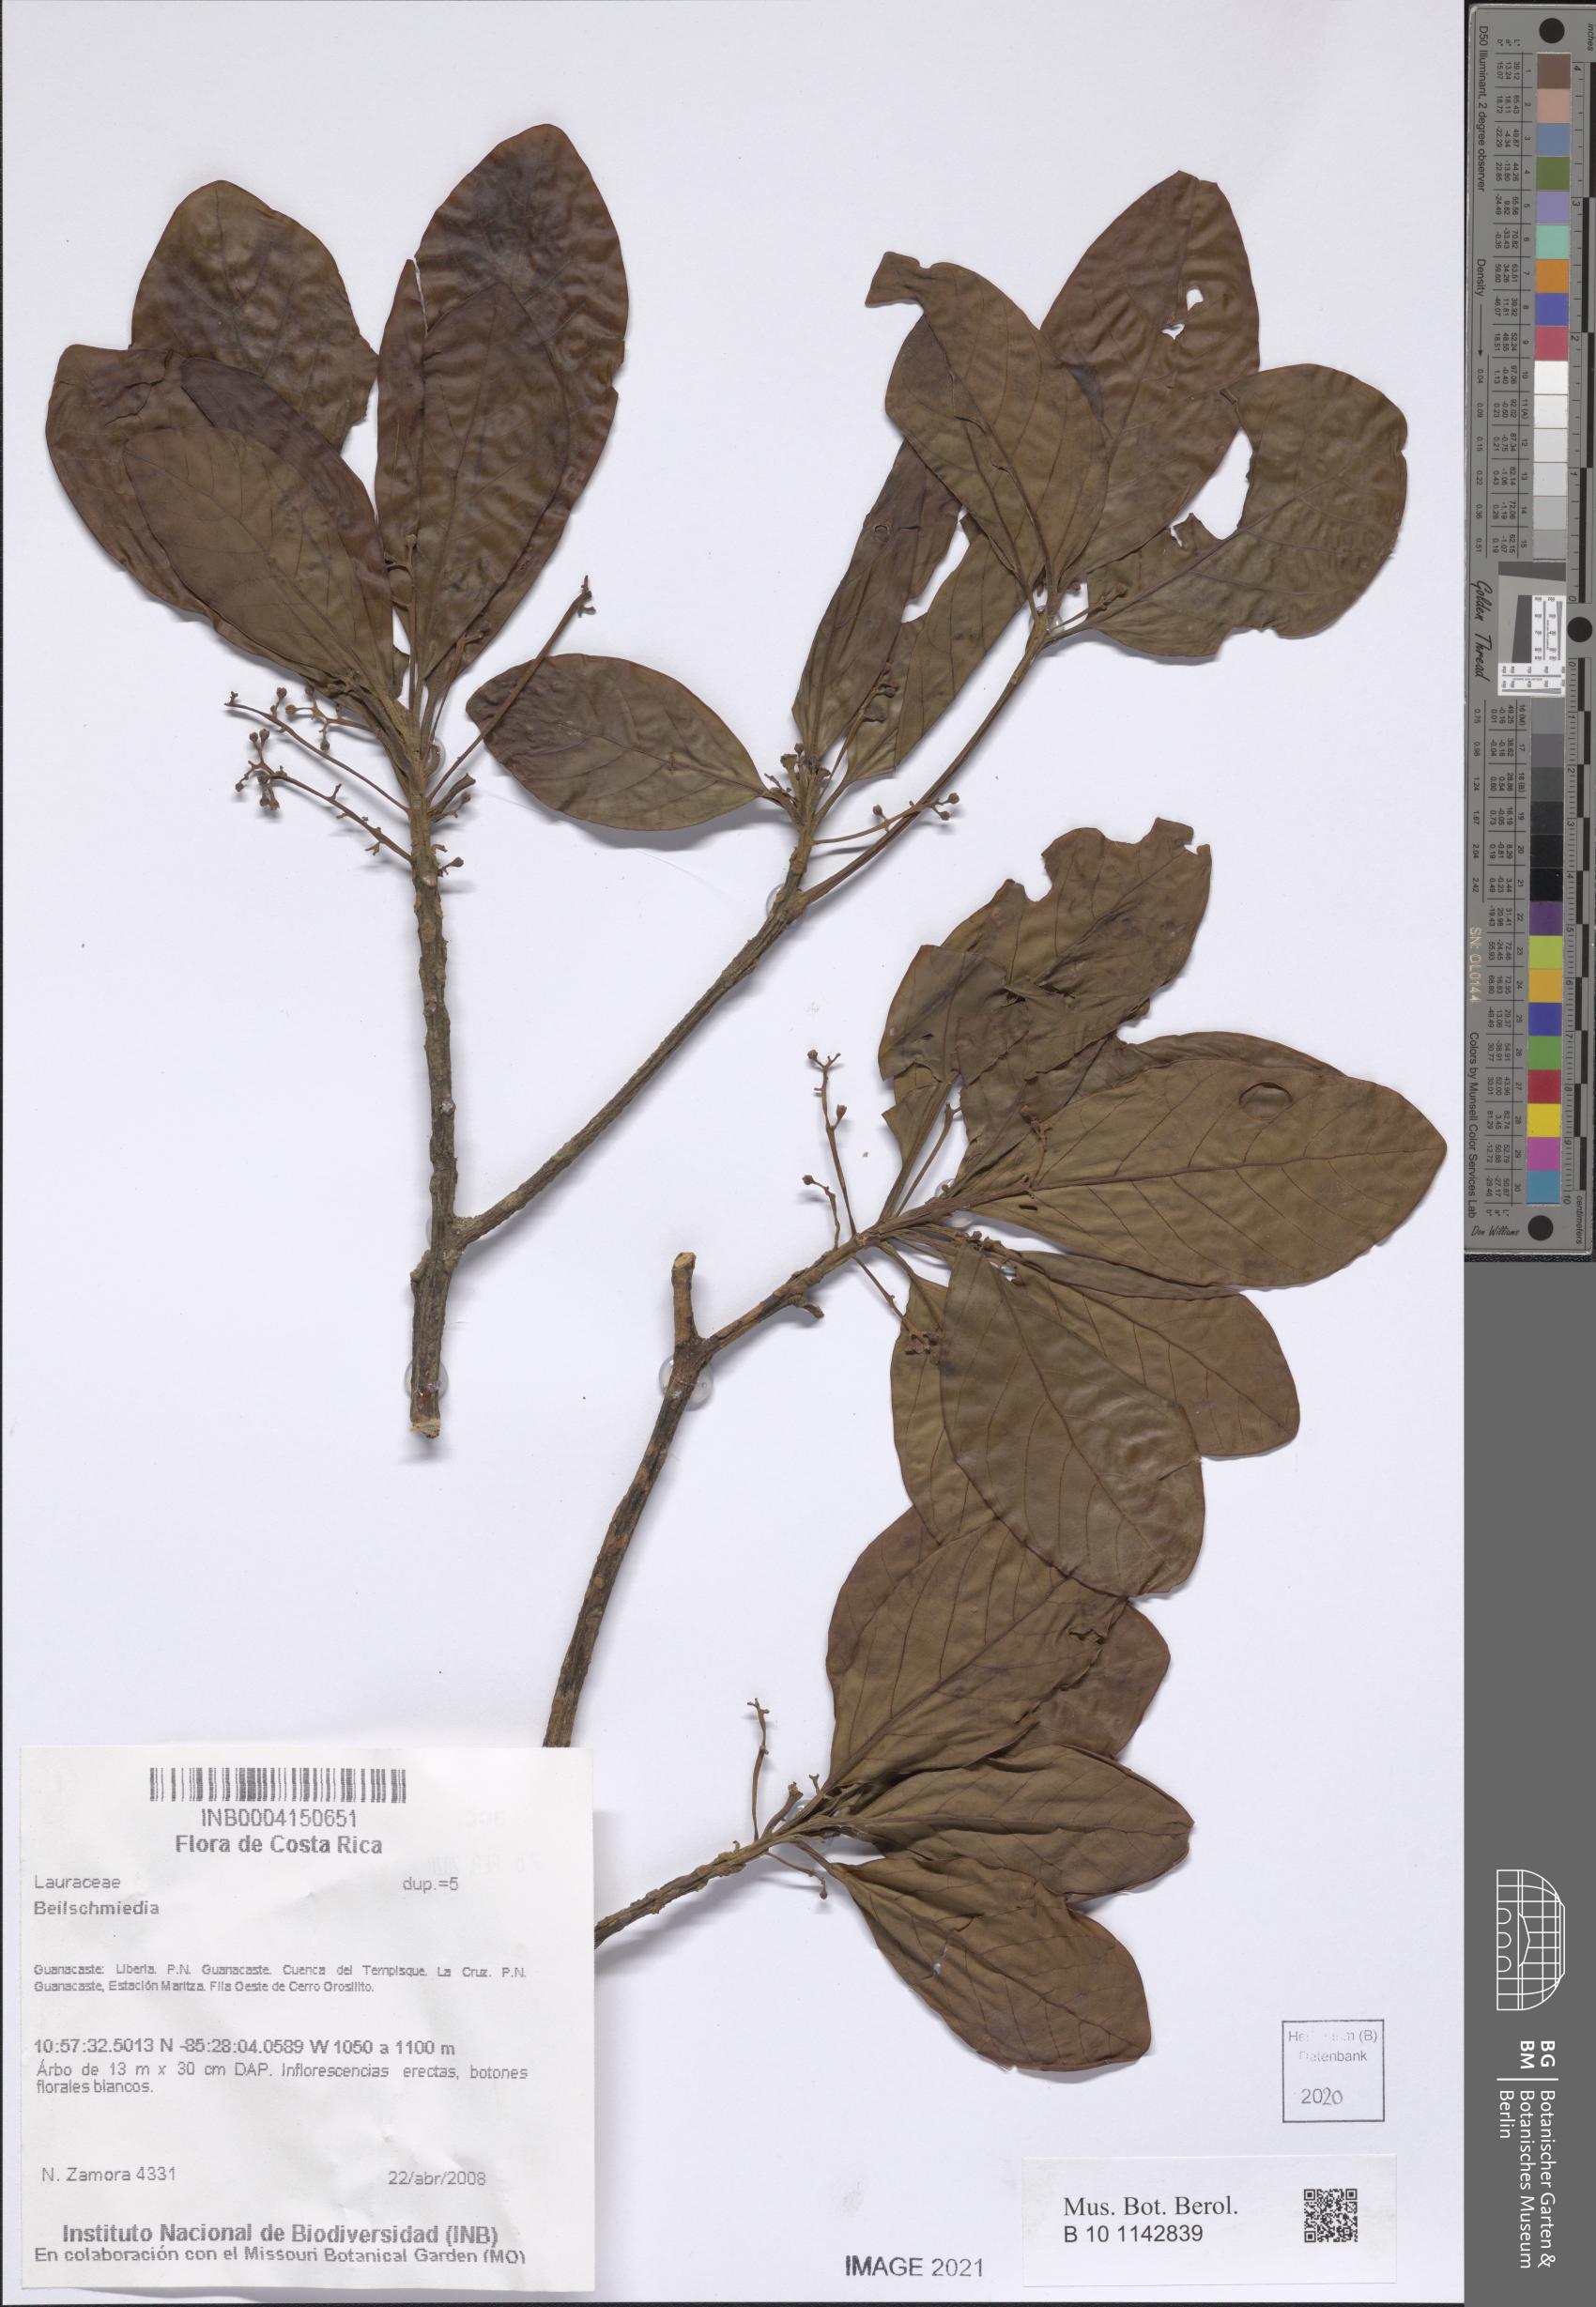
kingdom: Plantae
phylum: Tracheophyta
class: Magnoliopsida
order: Laurales
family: Lauraceae
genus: Beilschmiedia
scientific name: Beilschmiedia
